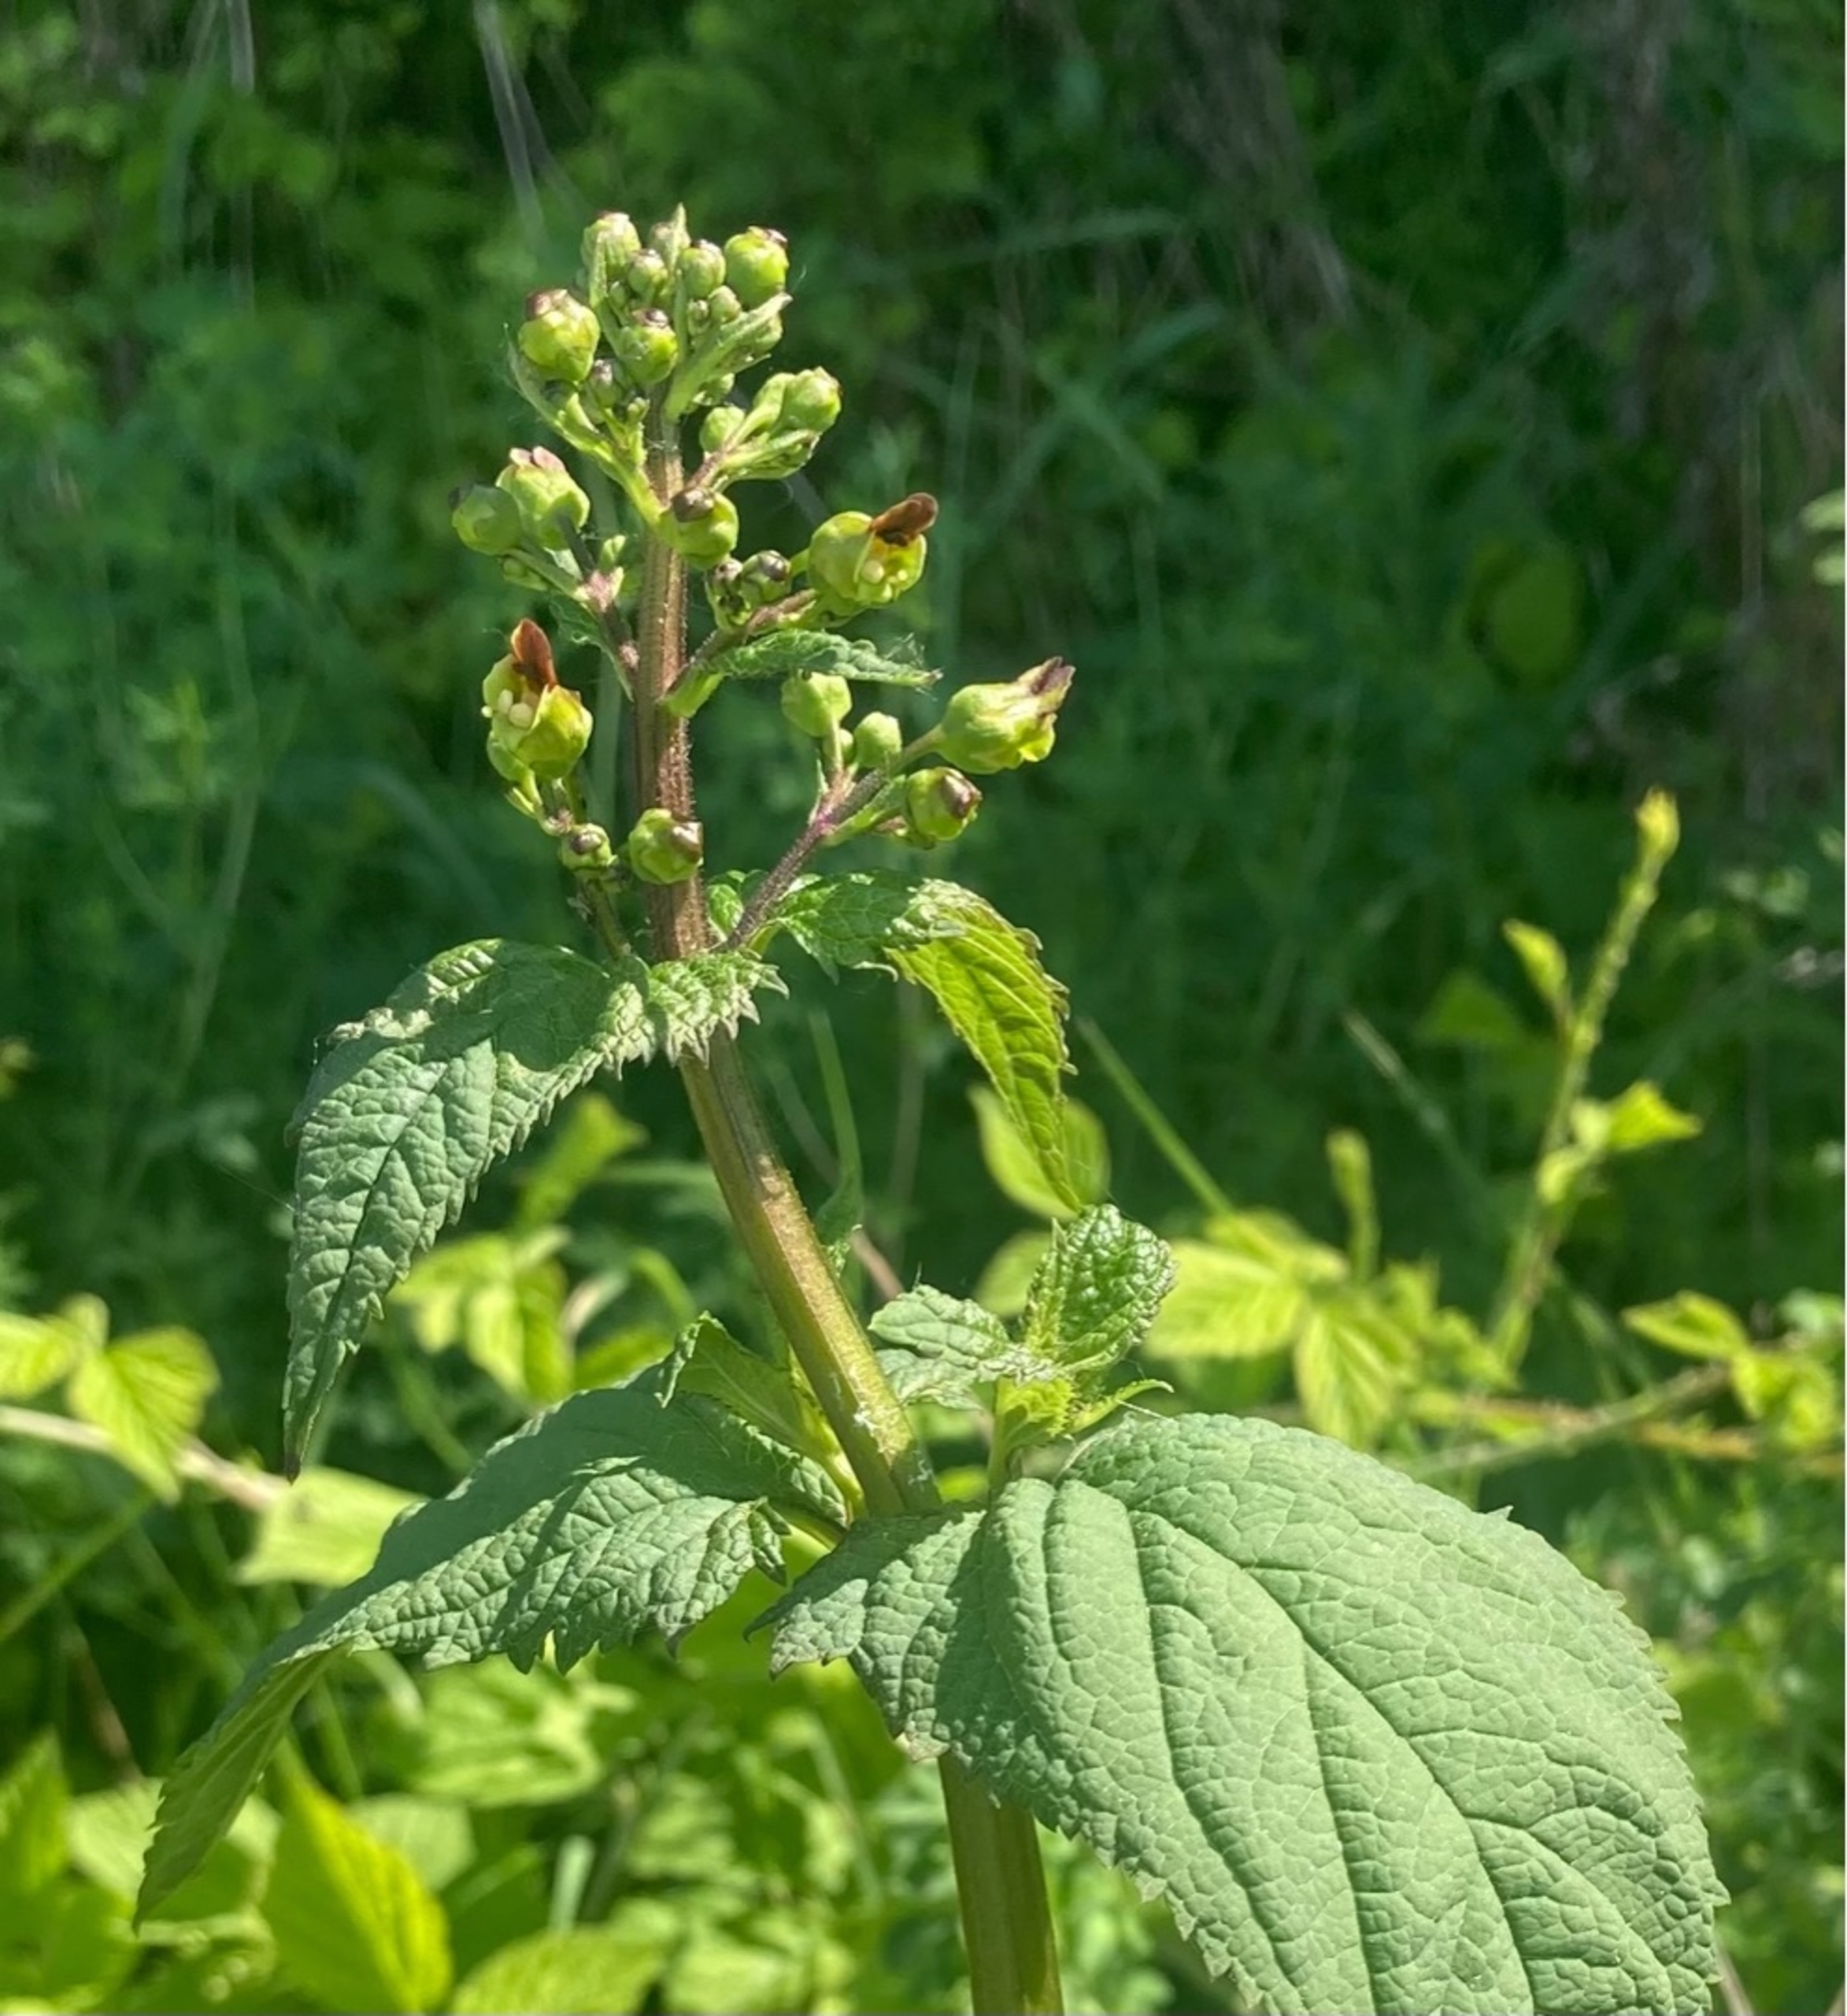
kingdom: Plantae
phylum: Tracheophyta
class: Magnoliopsida
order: Lamiales
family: Scrophulariaceae
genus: Scrophularia
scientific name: Scrophularia nodosa
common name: Knoldet brunrod
